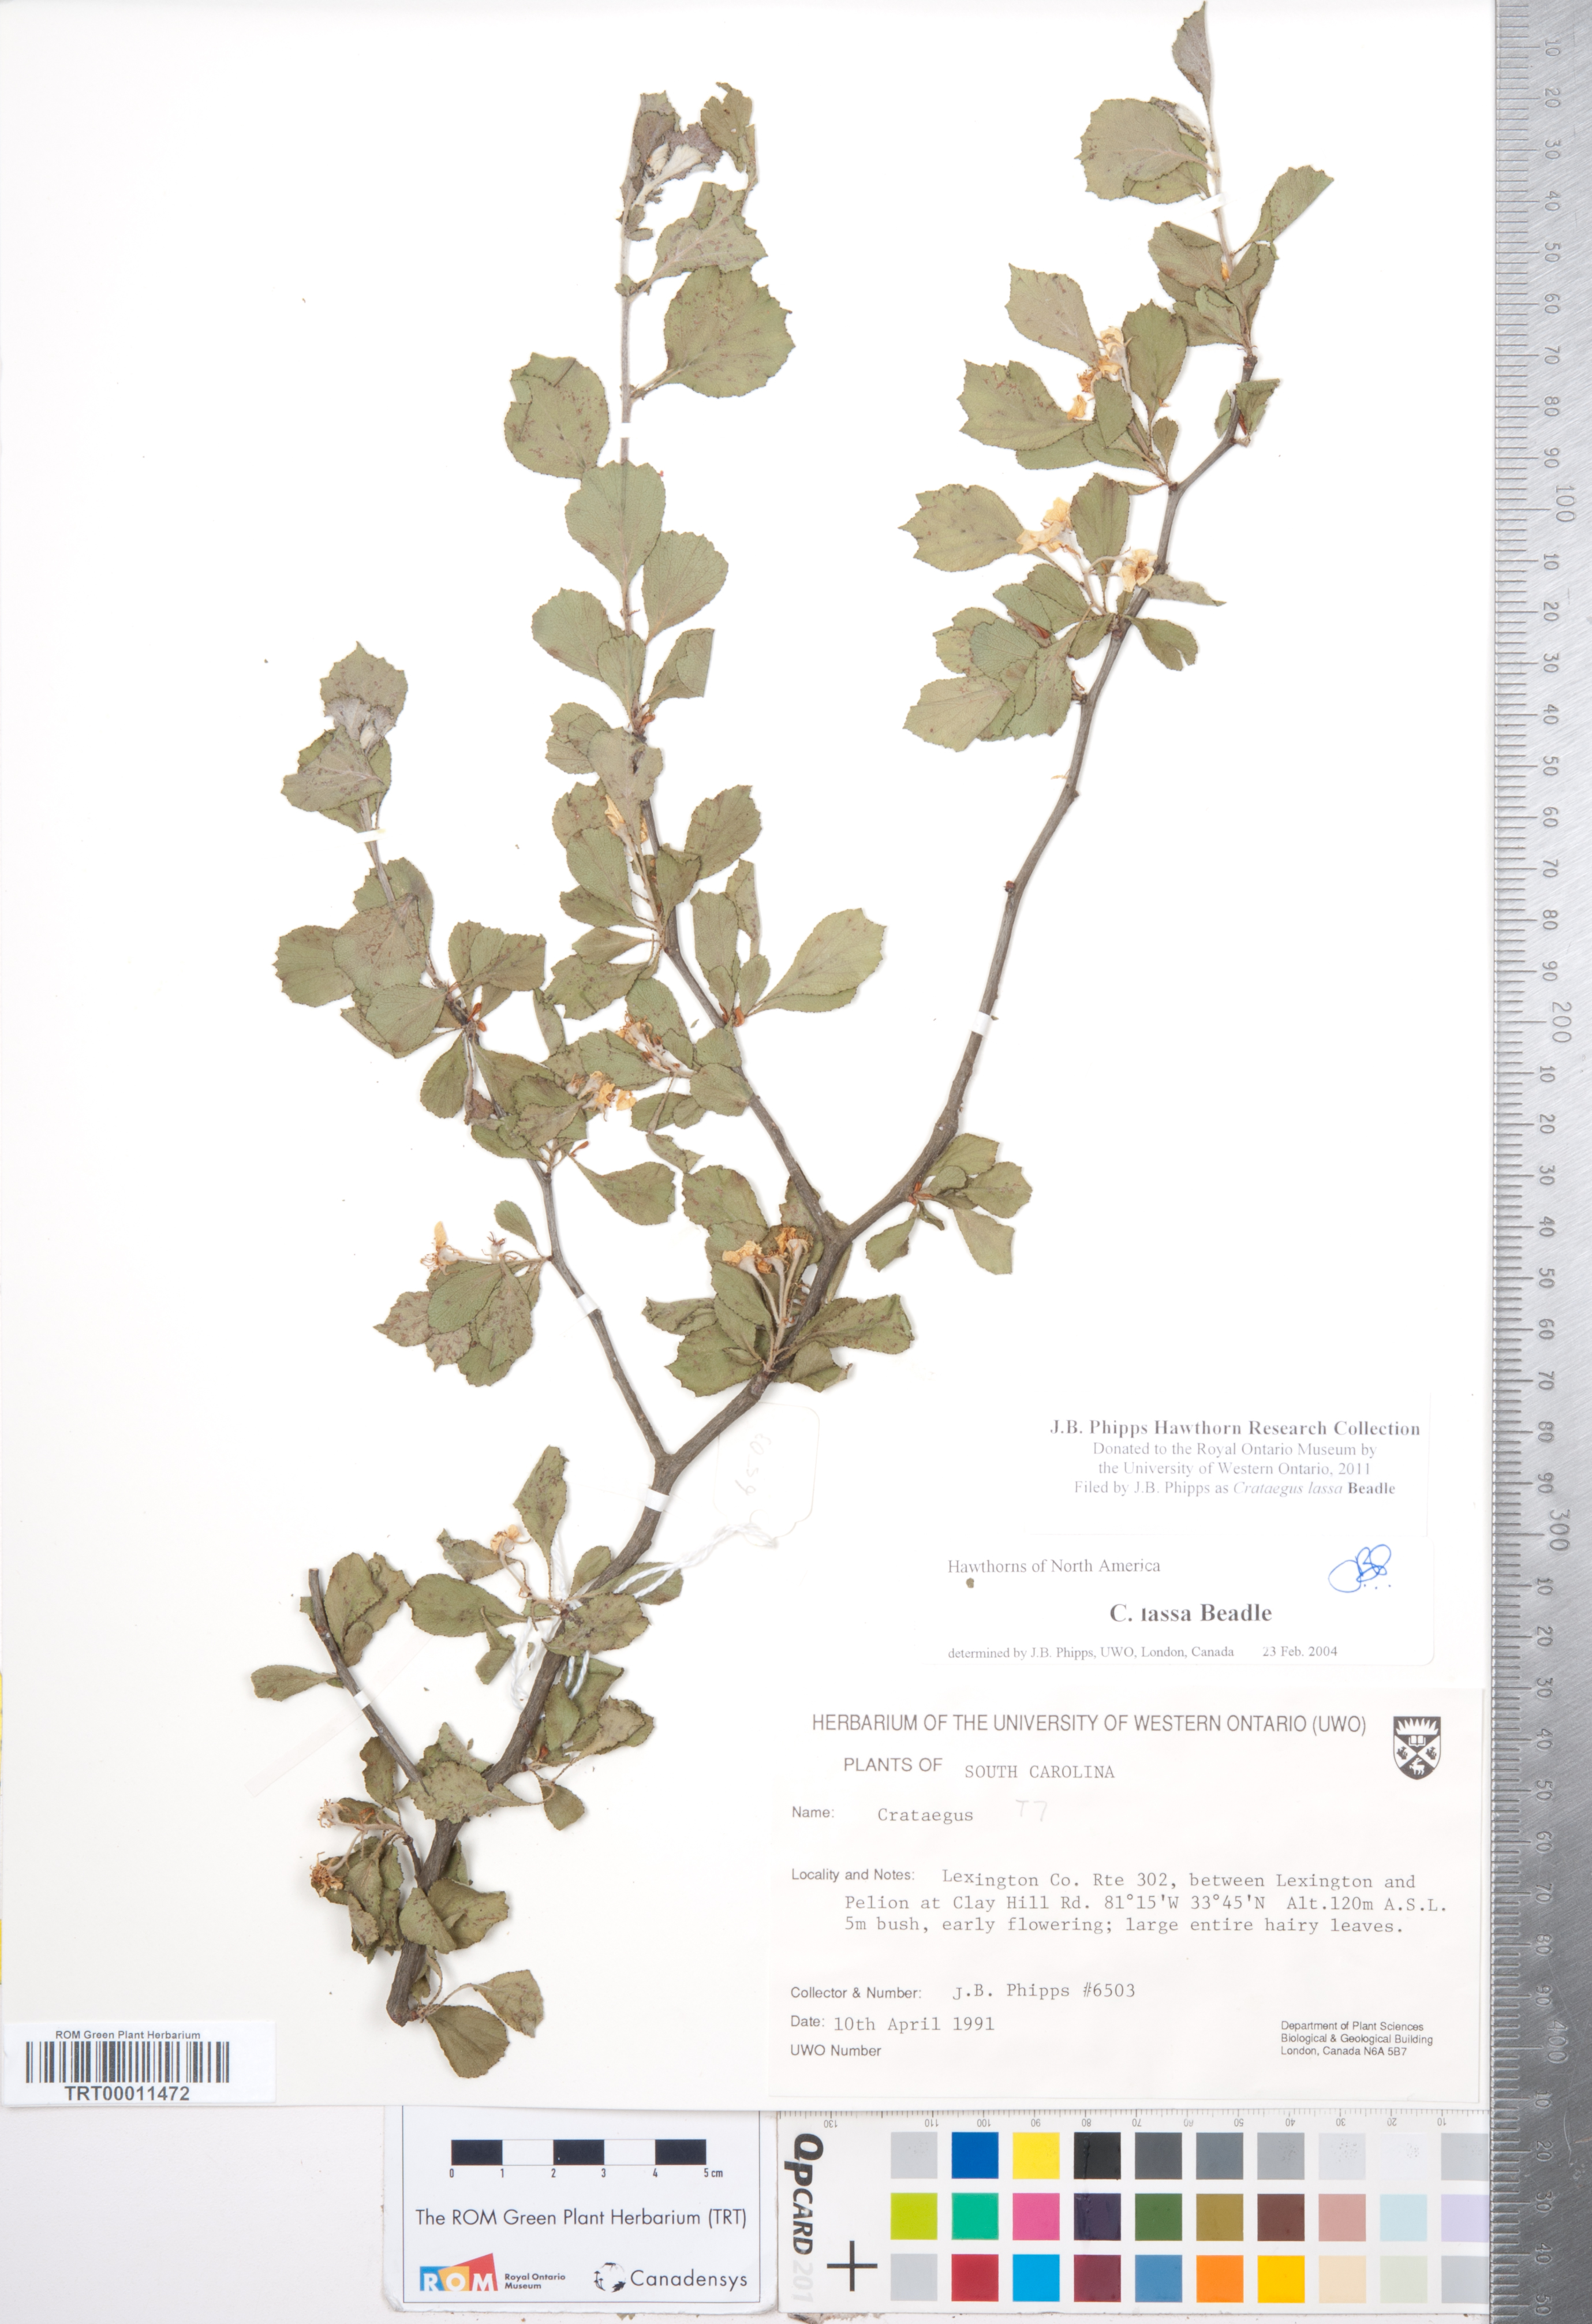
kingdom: Plantae
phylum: Tracheophyta
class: Magnoliopsida
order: Rosales
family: Rosaceae
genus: Crataegus
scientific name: Crataegus lassa
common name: Florida hawthorn
